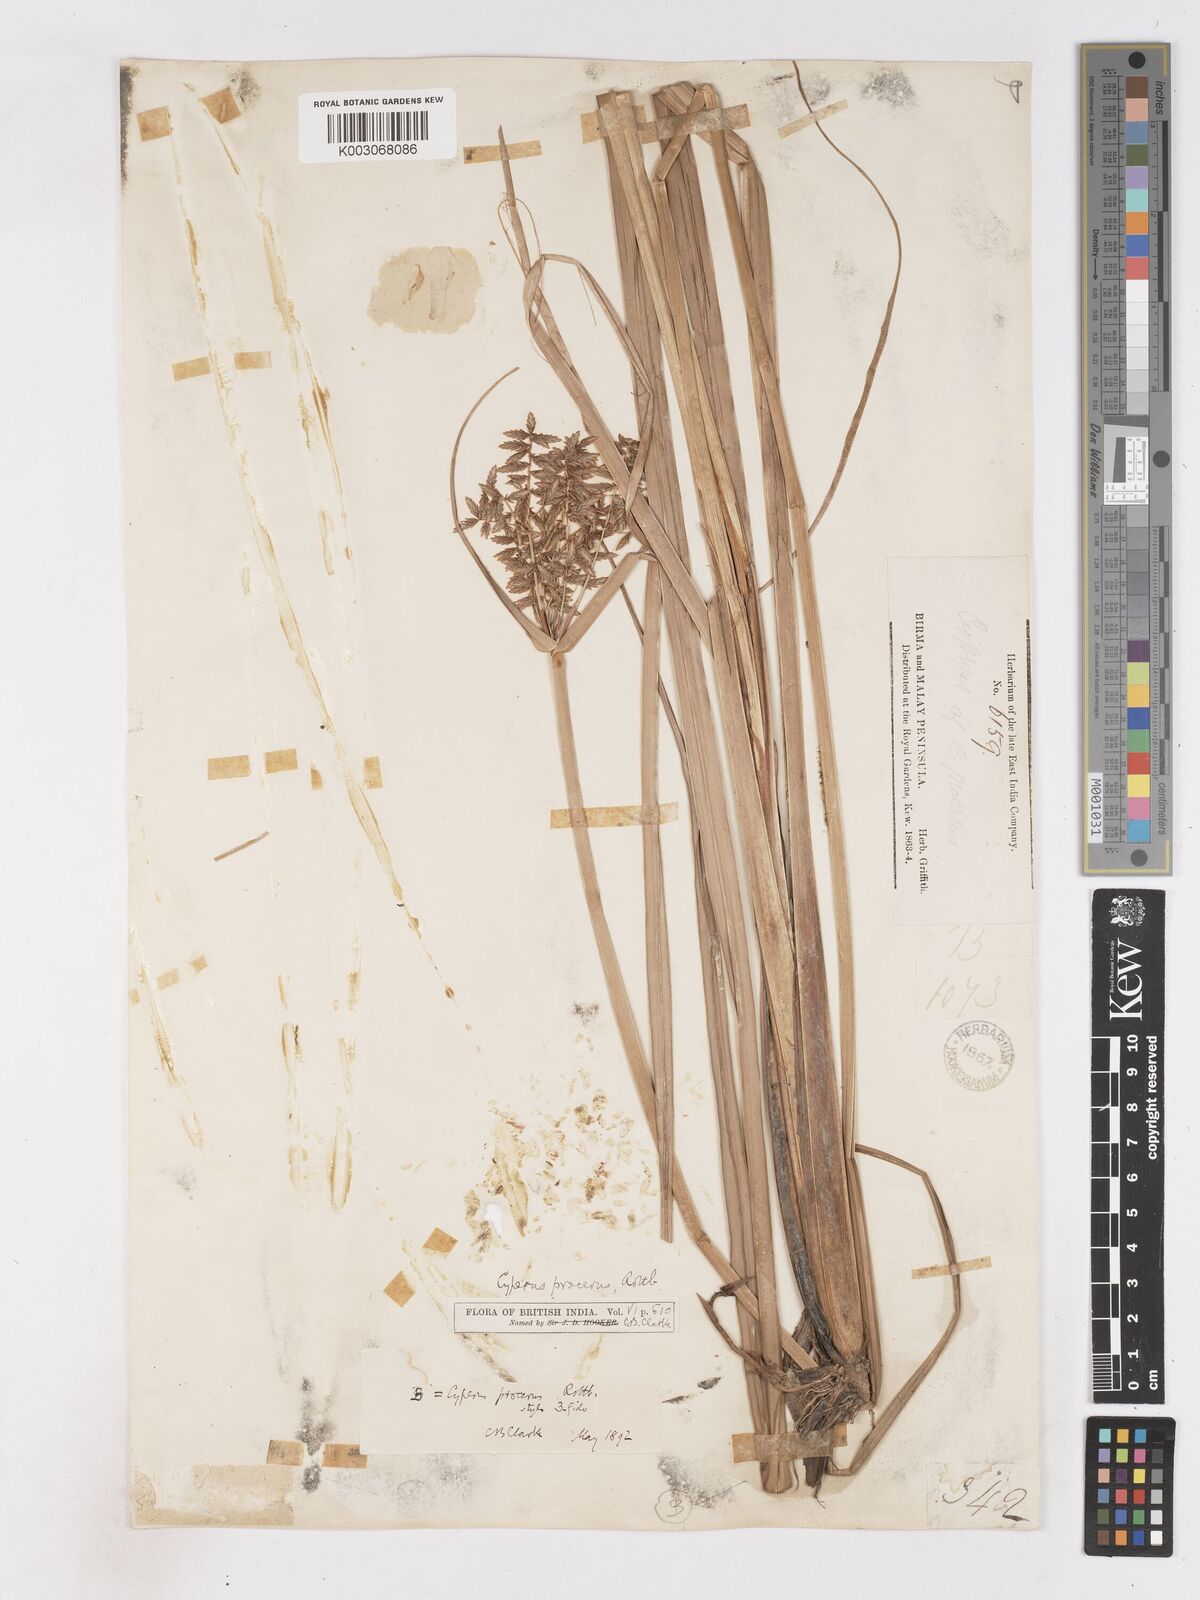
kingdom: Plantae
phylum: Tracheophyta
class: Liliopsida
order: Poales
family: Cyperaceae
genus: Cyperus
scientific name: Cyperus procerus
